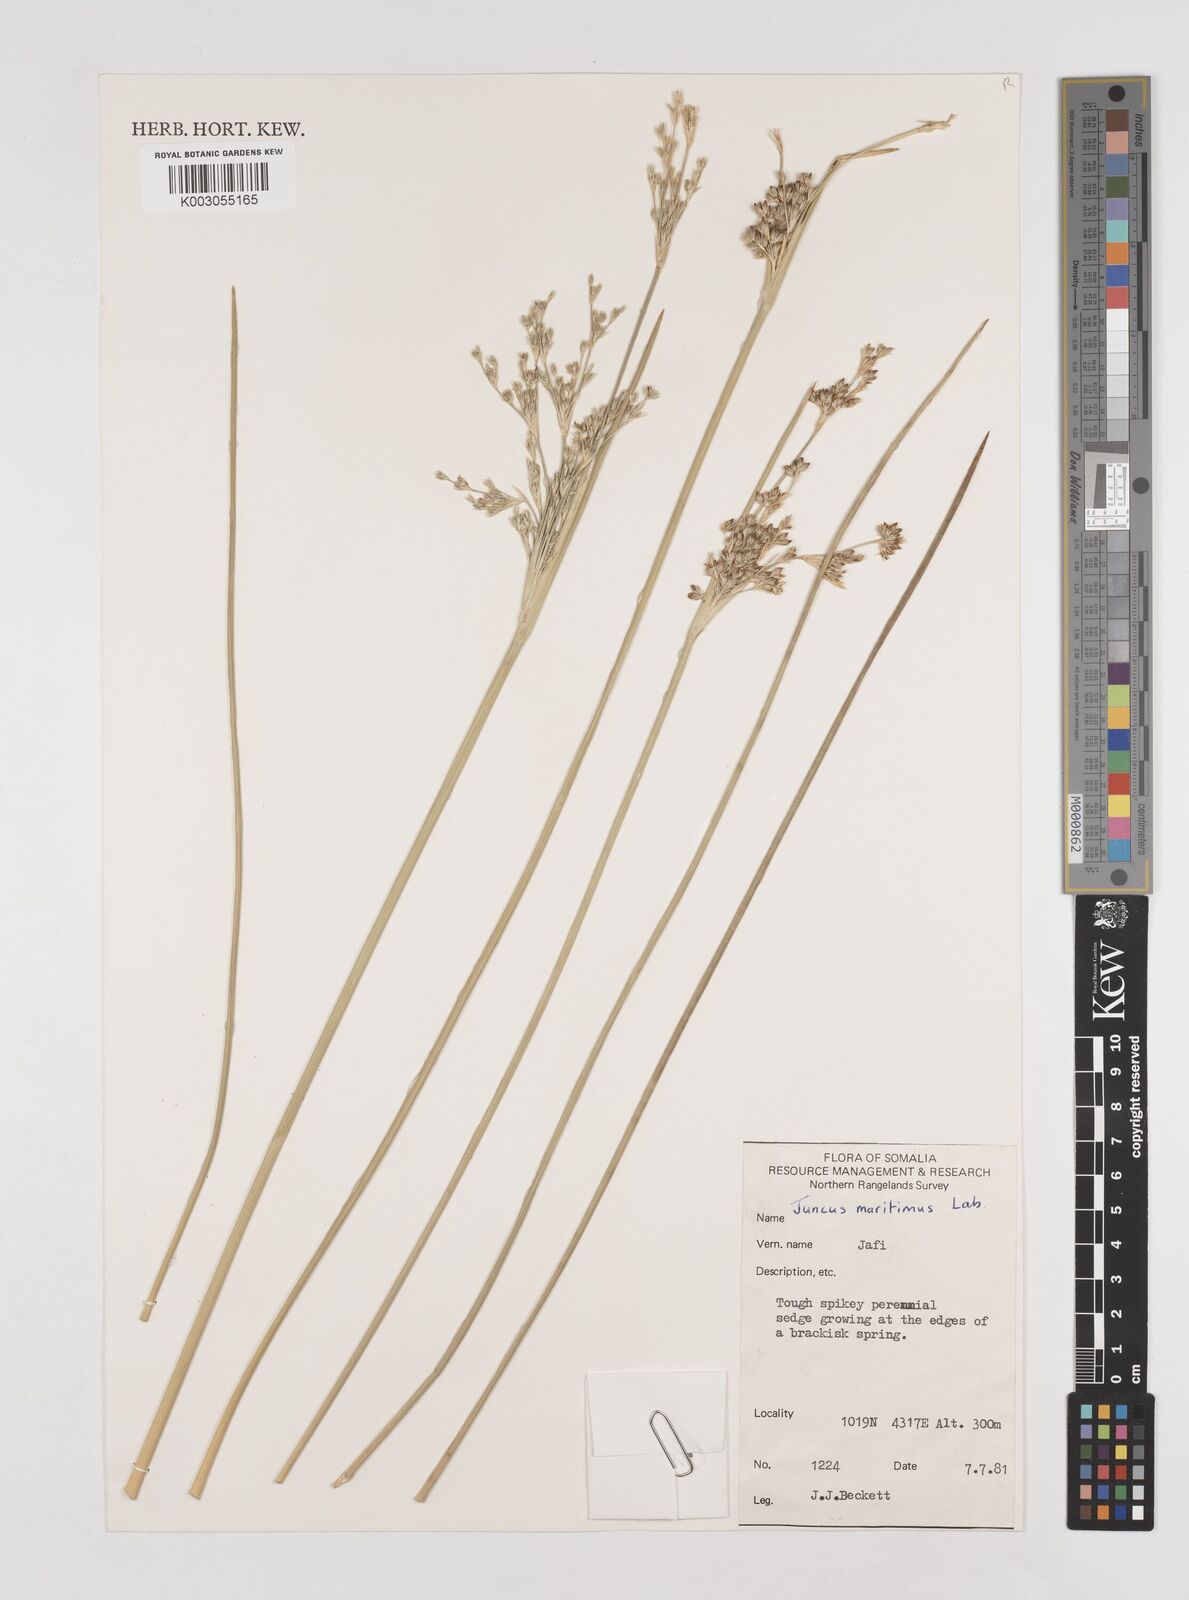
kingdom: Plantae
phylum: Tracheophyta
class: Liliopsida
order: Poales
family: Juncaceae
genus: Juncus
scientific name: Juncus kraussii
